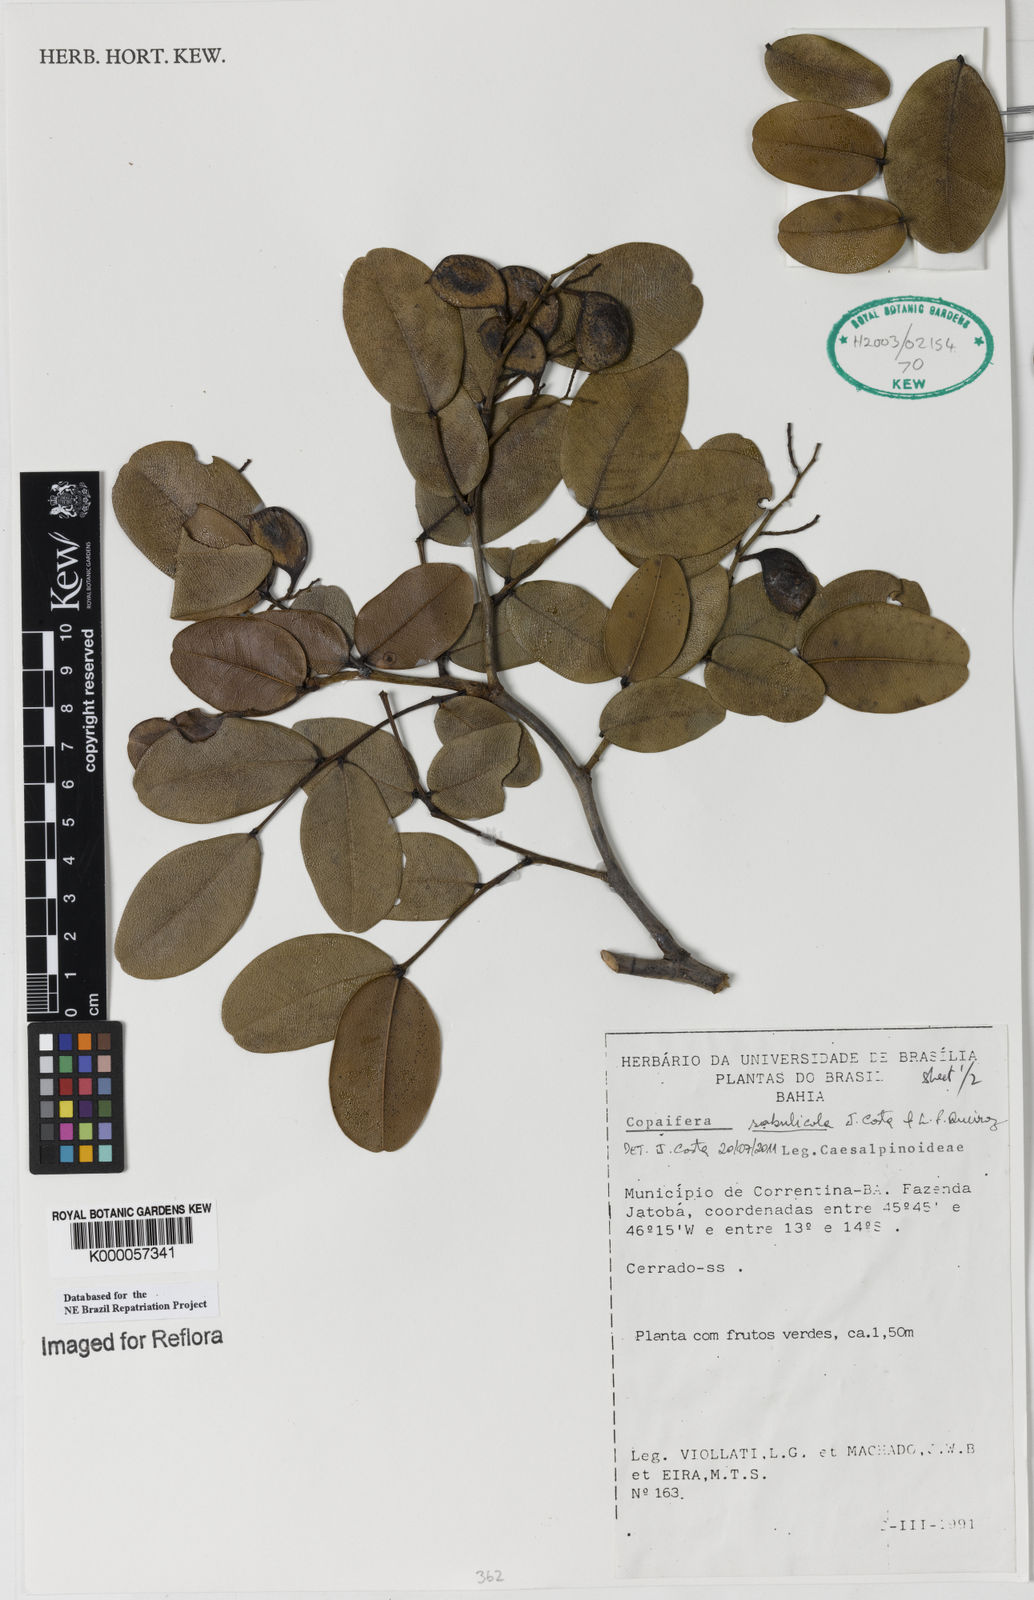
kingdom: Plantae
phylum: Tracheophyta
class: Magnoliopsida
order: Fabales
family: Fabaceae
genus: Copaifera
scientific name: Copaifera
